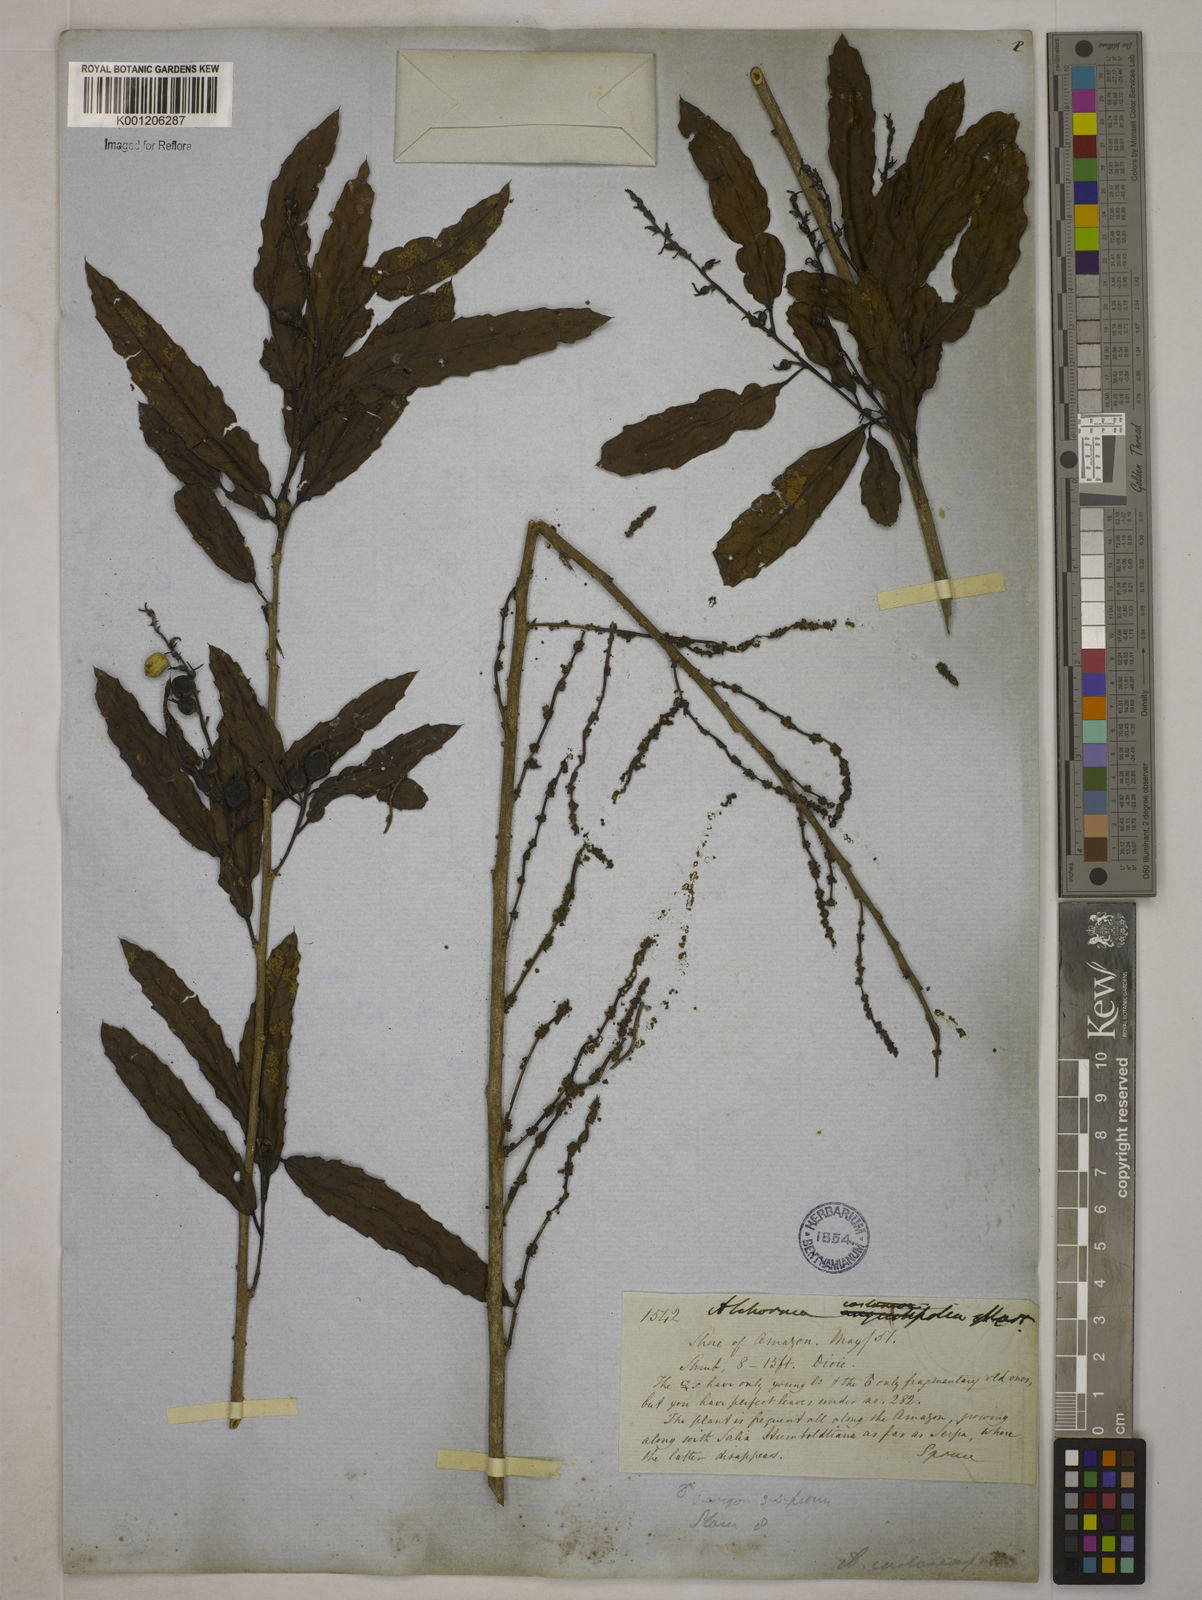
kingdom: Plantae
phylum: Tracheophyta
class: Magnoliopsida
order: Malpighiales
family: Euphorbiaceae
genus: Alchornea
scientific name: Alchornea castaneifolia
